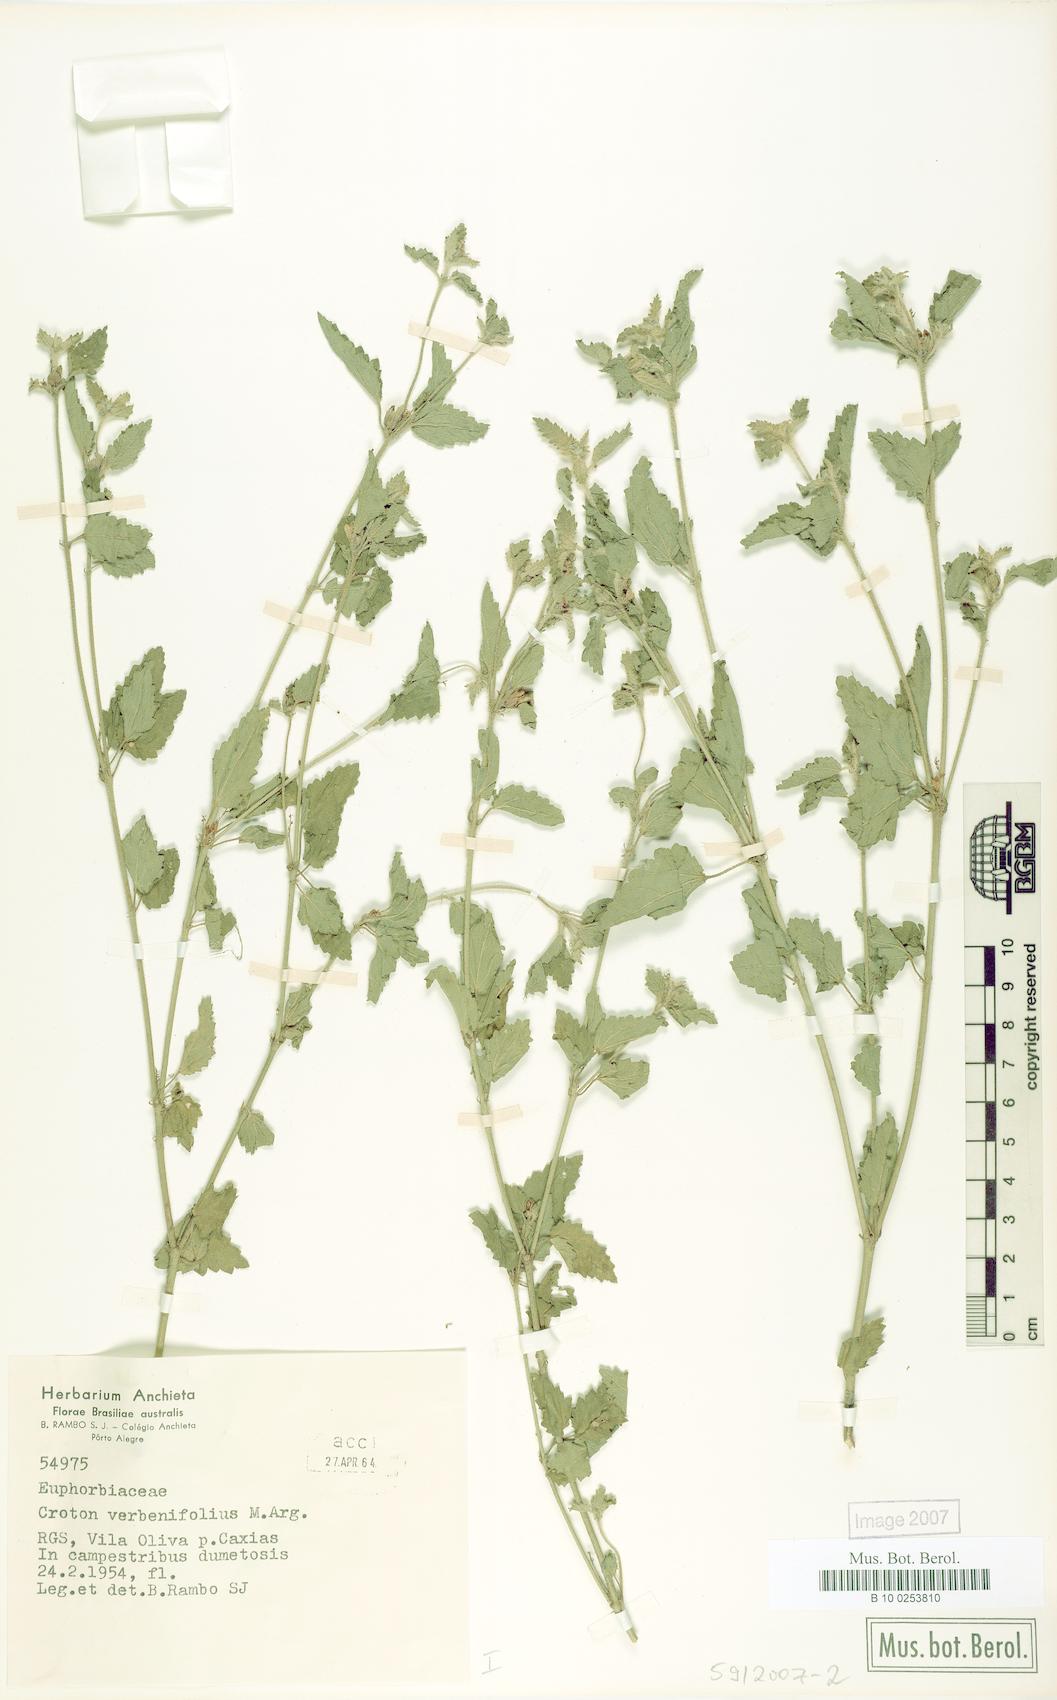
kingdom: Plantae
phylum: Tracheophyta
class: Magnoliopsida
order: Malpighiales
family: Euphorbiaceae
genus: Croton
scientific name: Croton verbenifolius
